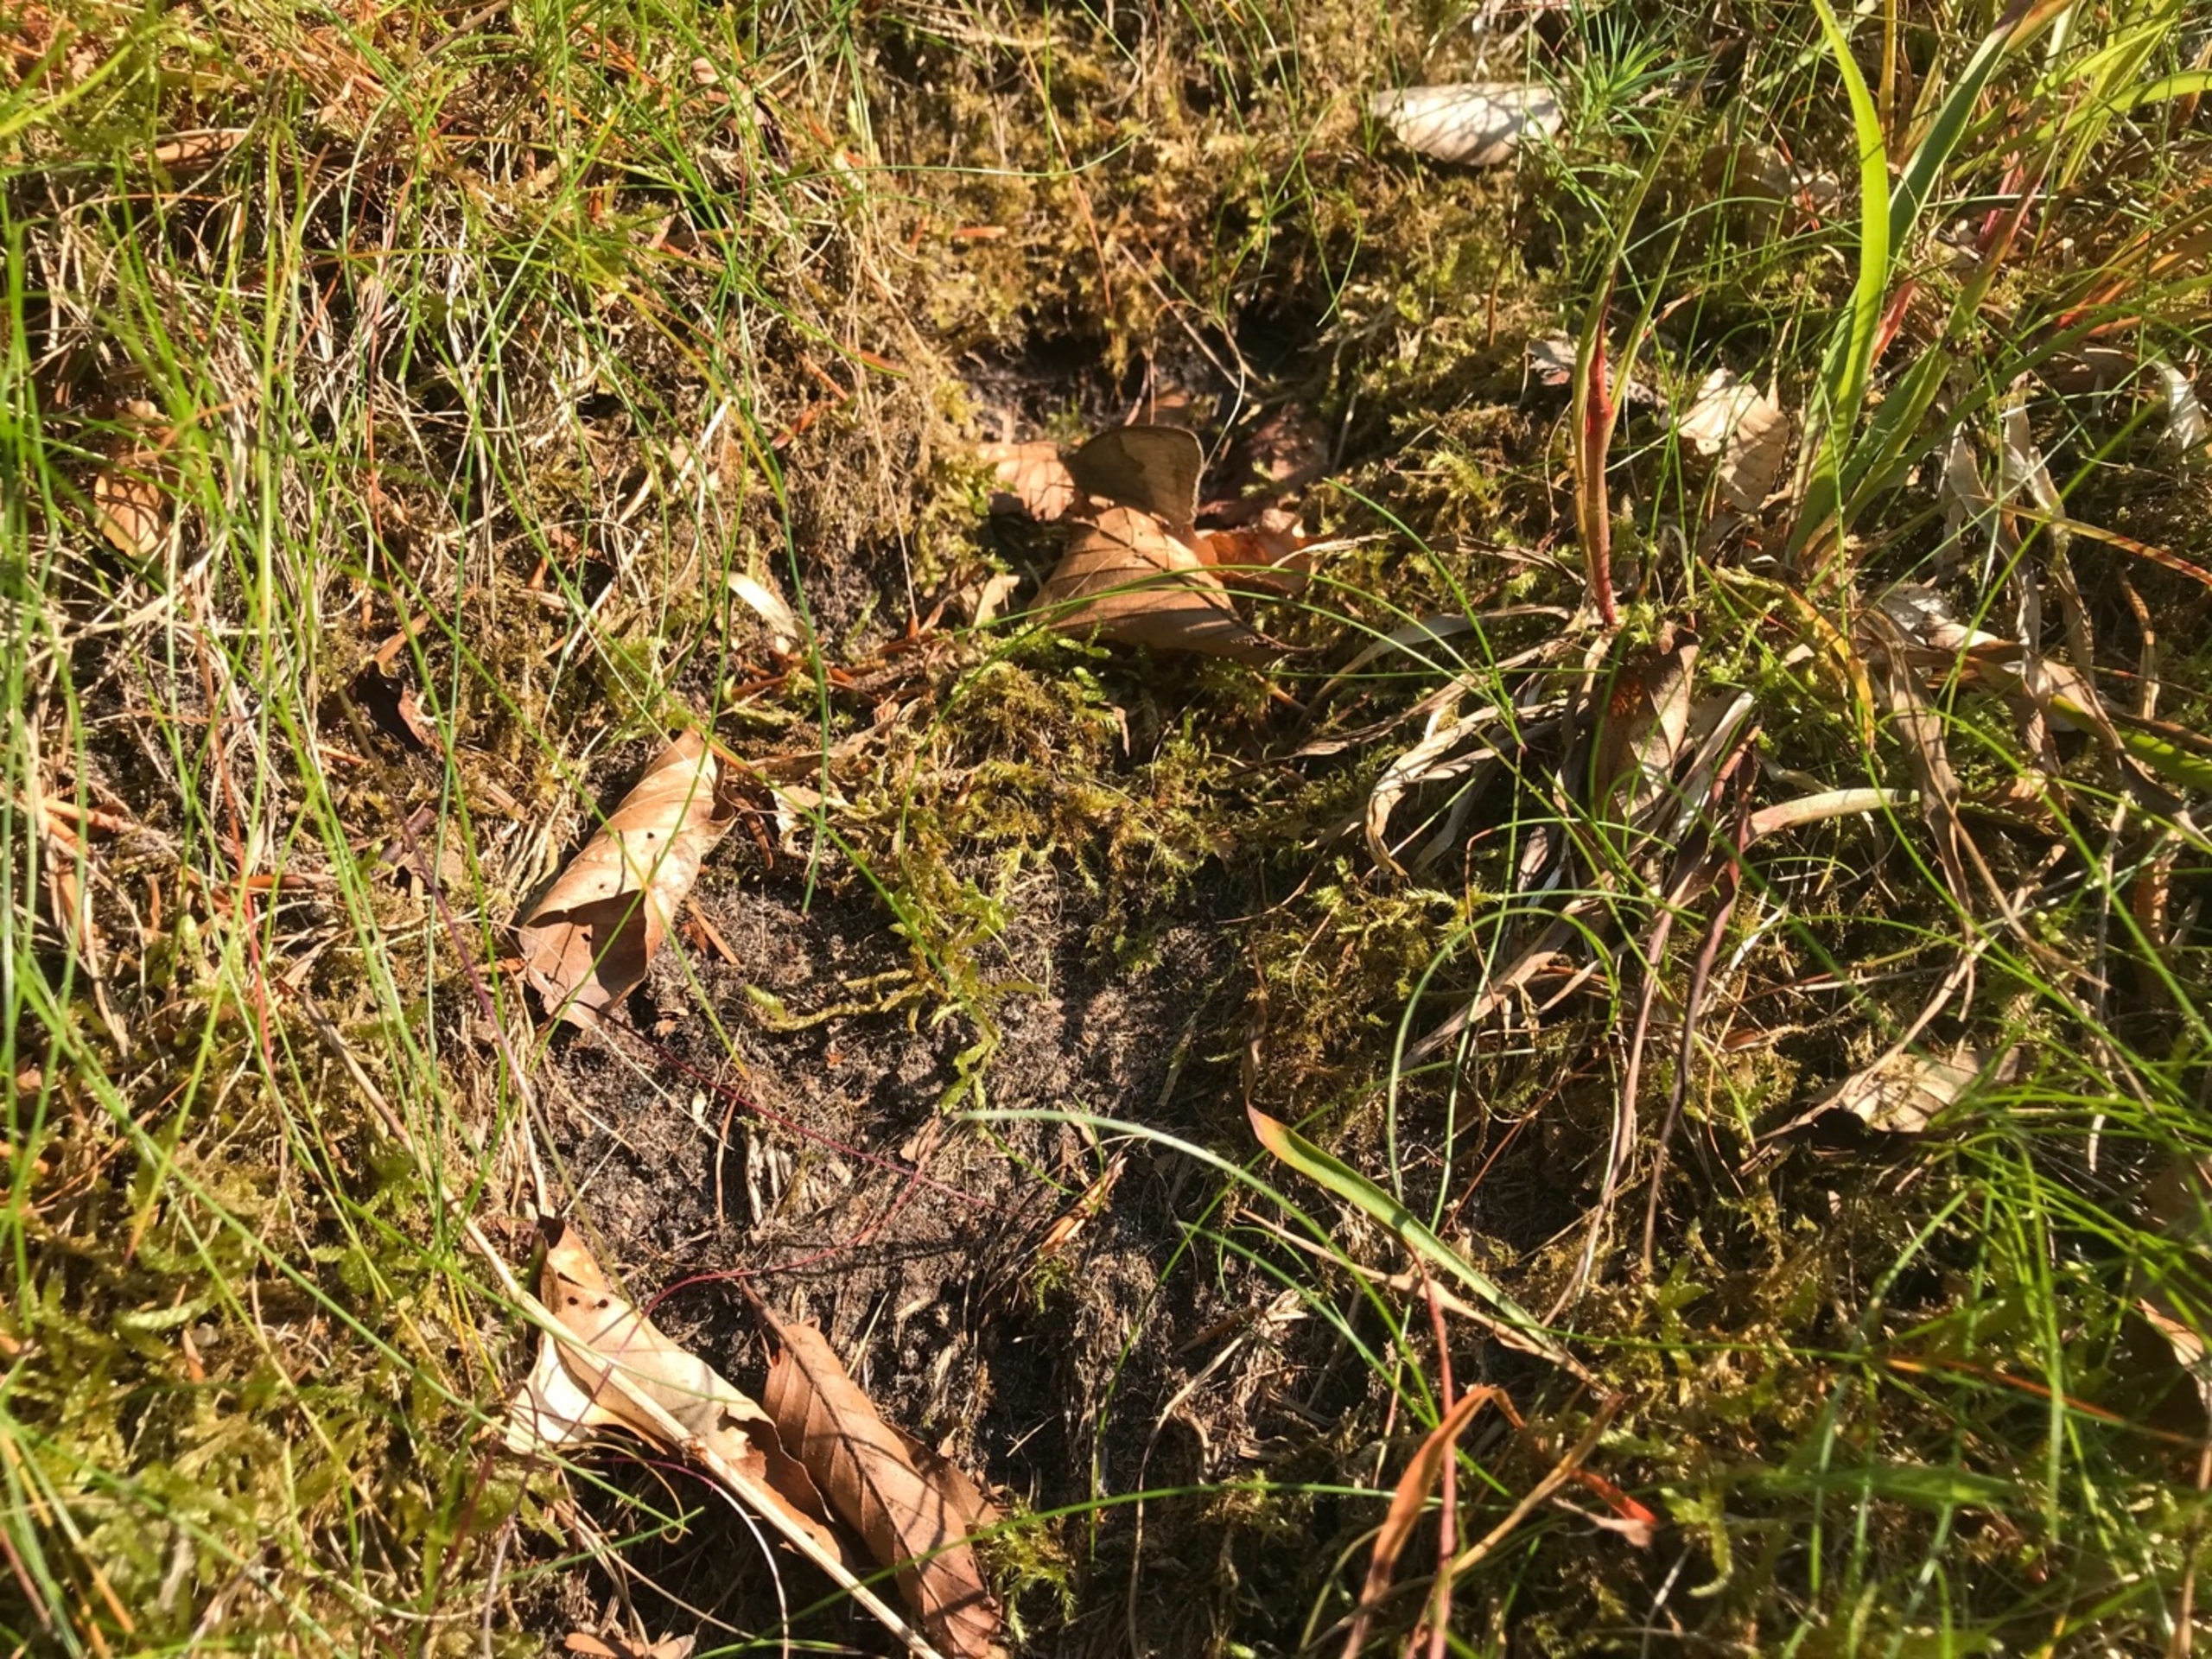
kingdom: Animalia
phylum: Arthropoda
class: Insecta
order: Lepidoptera
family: Nymphalidae
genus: Maniola
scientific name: Maniola jurtina
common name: Græsrandøje
